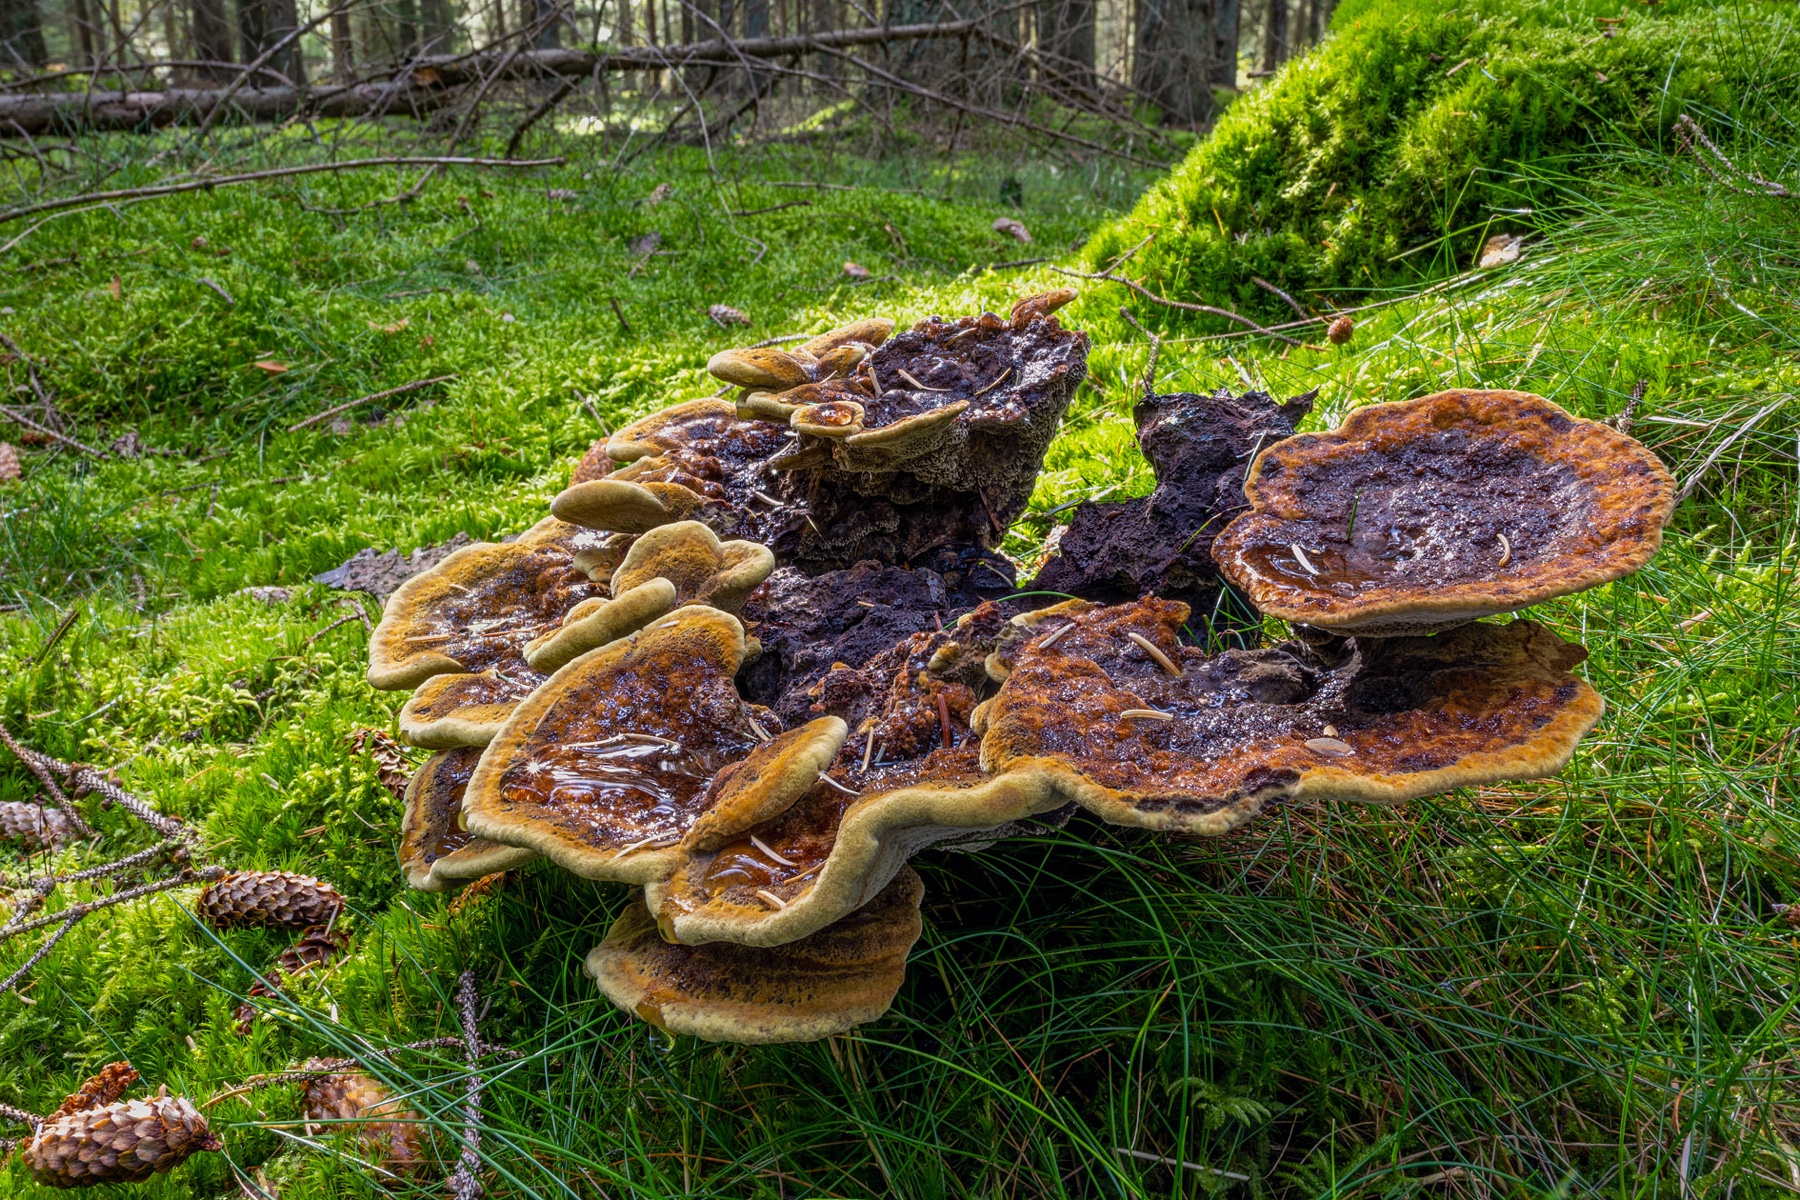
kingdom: Fungi
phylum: Basidiomycota
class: Agaricomycetes
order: Polyporales
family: Laetiporaceae
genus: Phaeolus
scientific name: Phaeolus schweinitzii
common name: brunporesvamp
